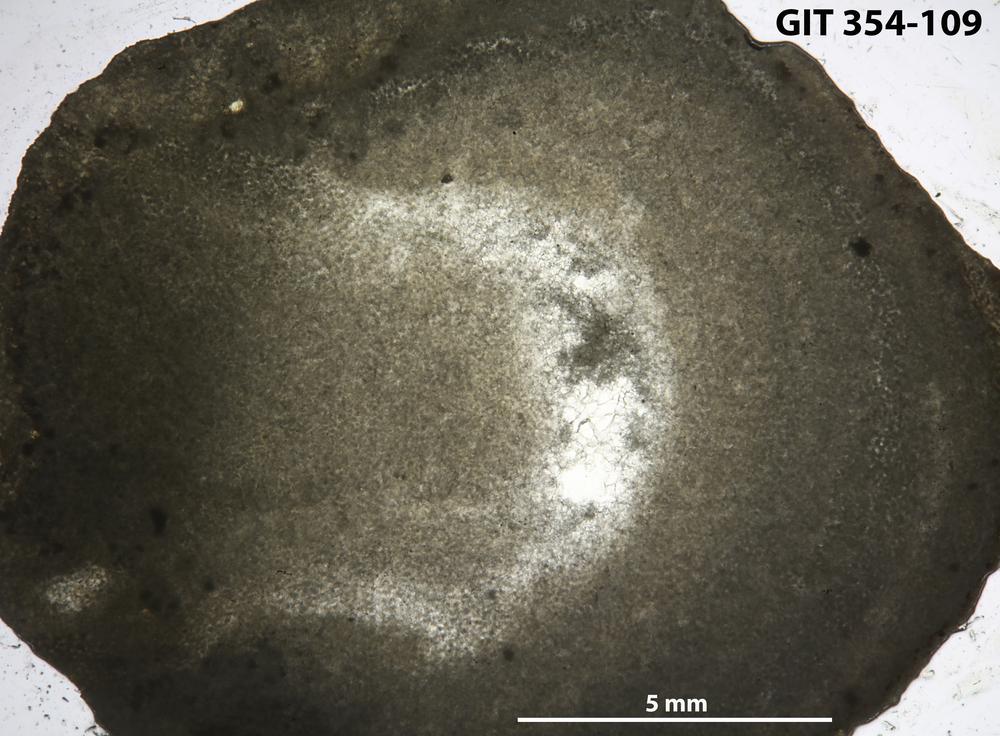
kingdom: Animalia
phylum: Porifera
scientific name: Porifera
